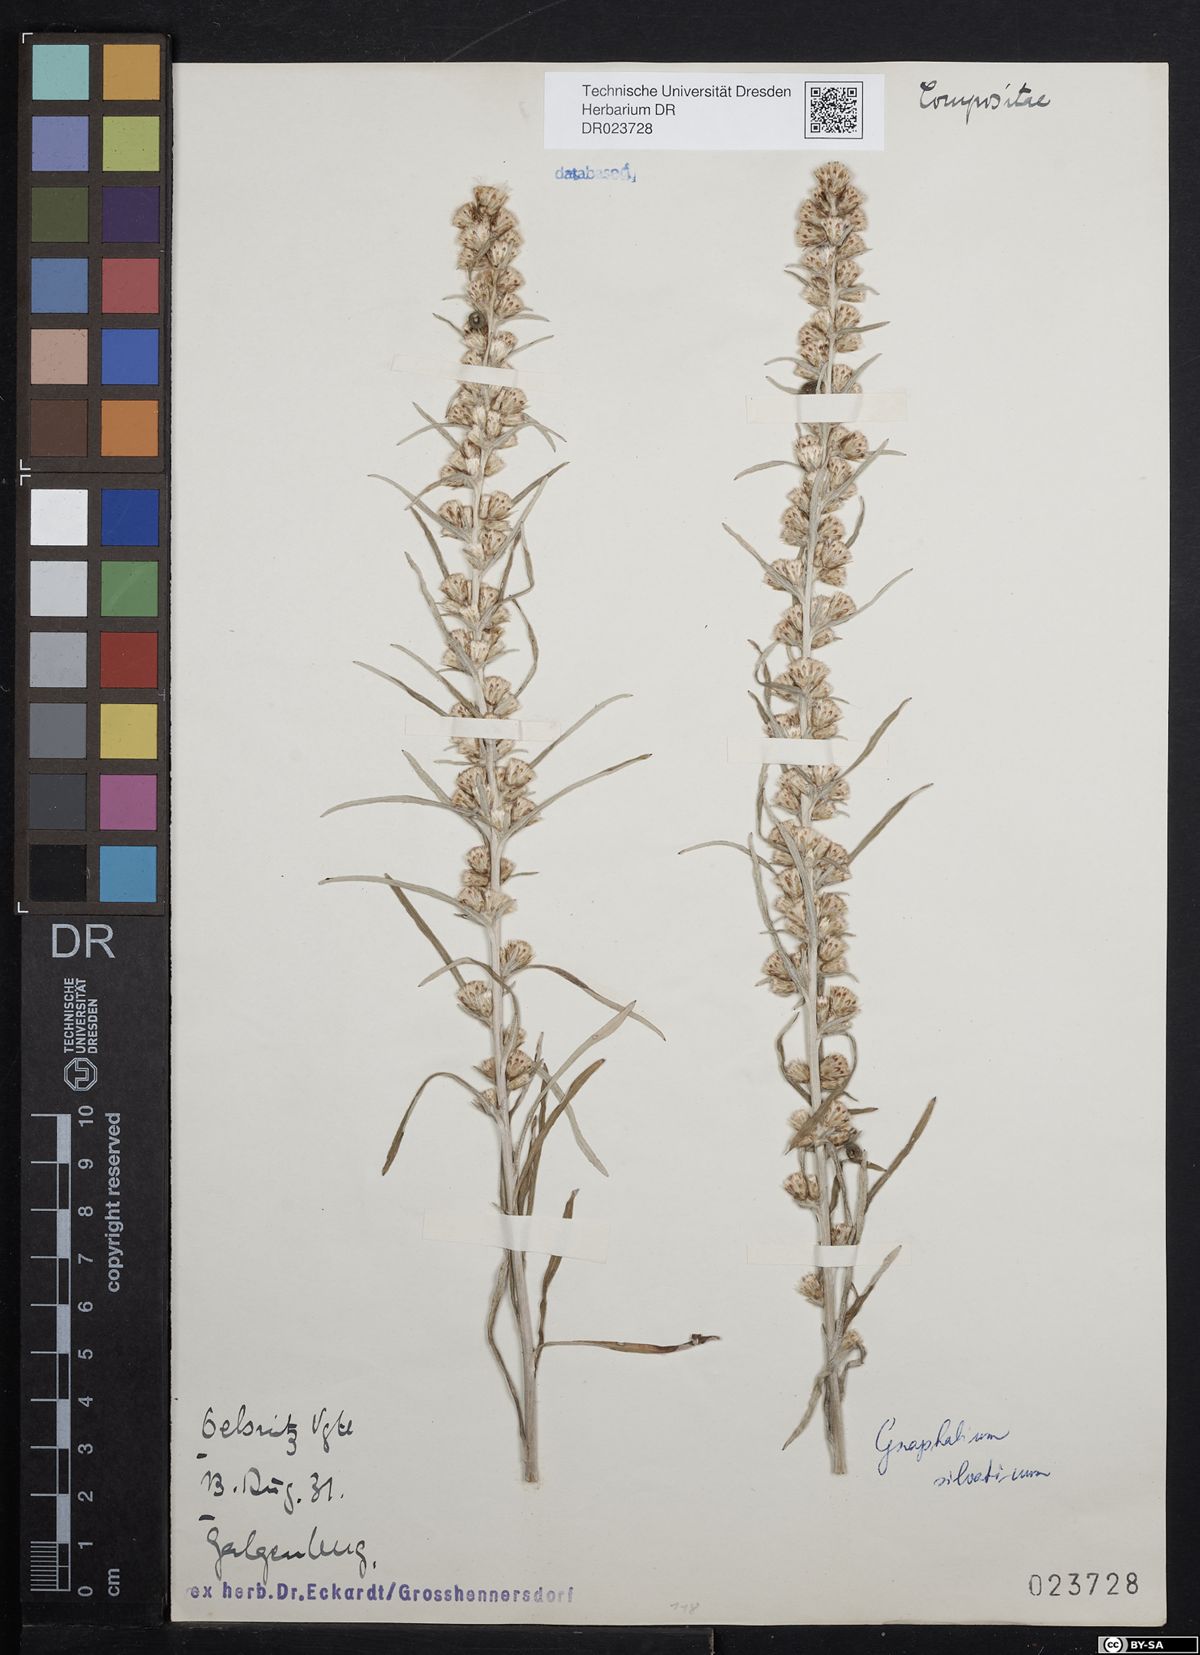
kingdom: Plantae
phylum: Tracheophyta
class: Magnoliopsida
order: Asterales
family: Asteraceae
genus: Omalotheca
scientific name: Omalotheca sylvatica
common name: Heath cudweed
